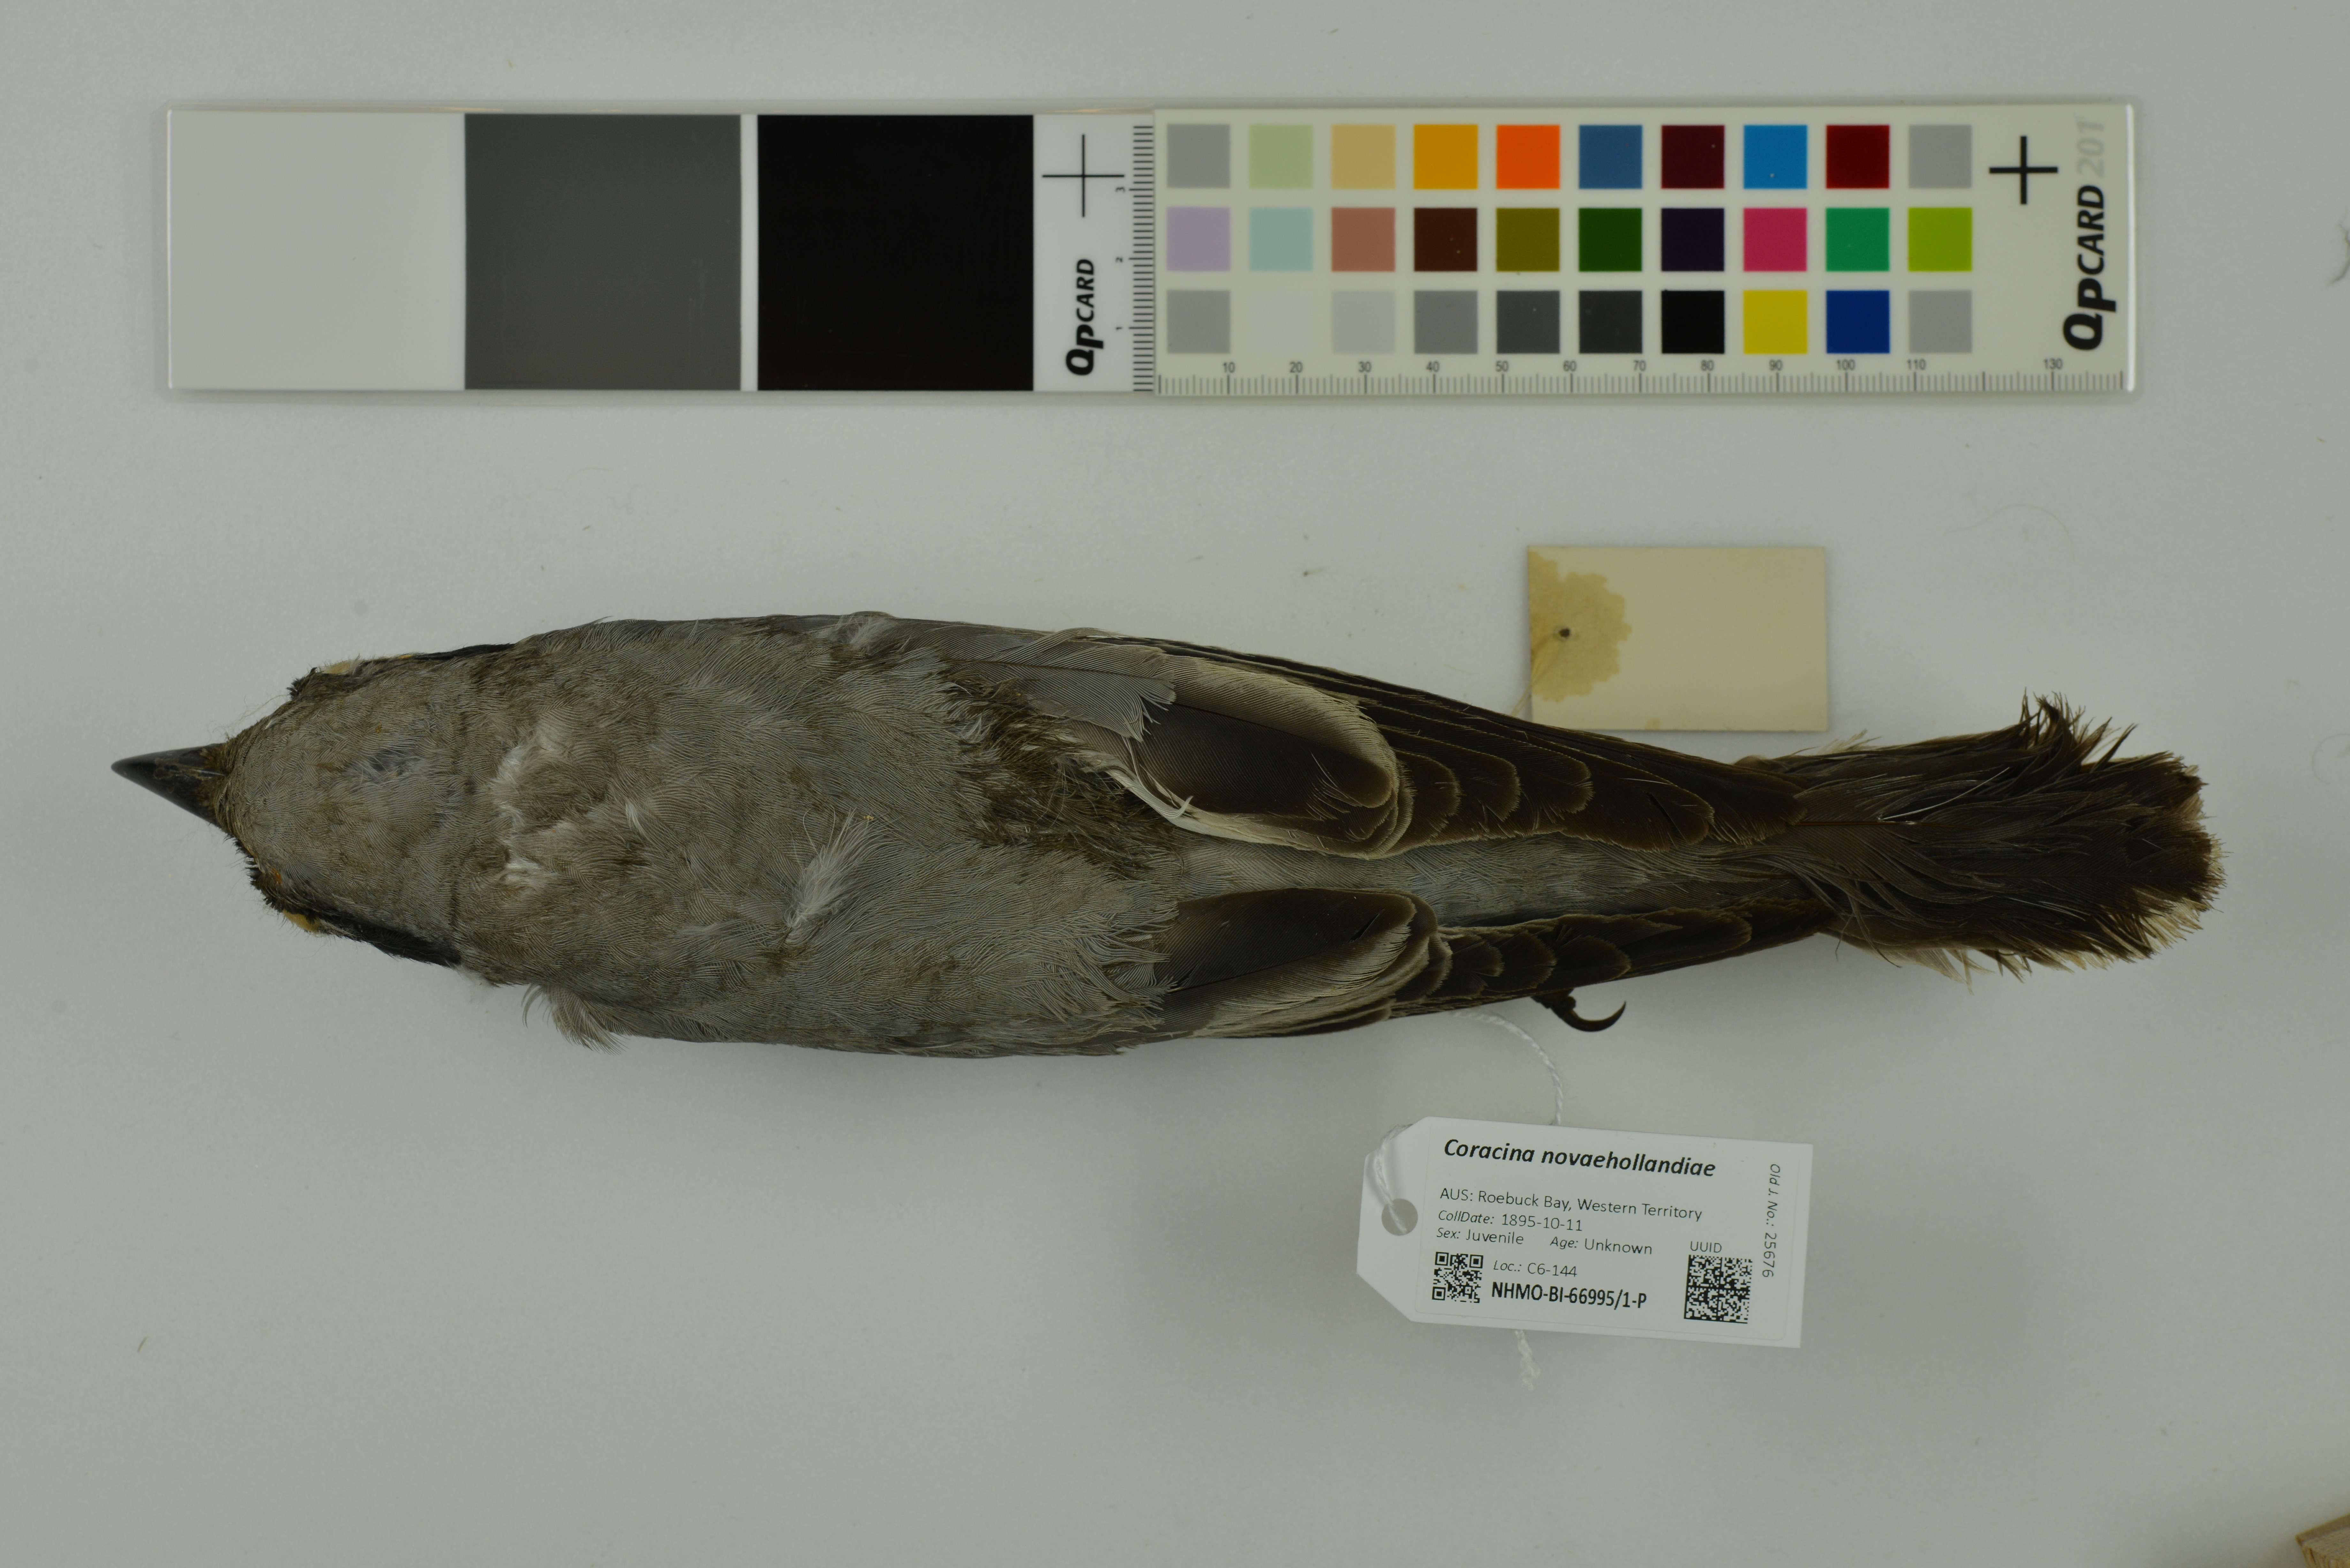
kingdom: Animalia
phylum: Chordata
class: Aves
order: Passeriformes
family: Campephagidae
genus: Coracina
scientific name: Coracina novaehollandiae
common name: Black-faced cuckooshrike
